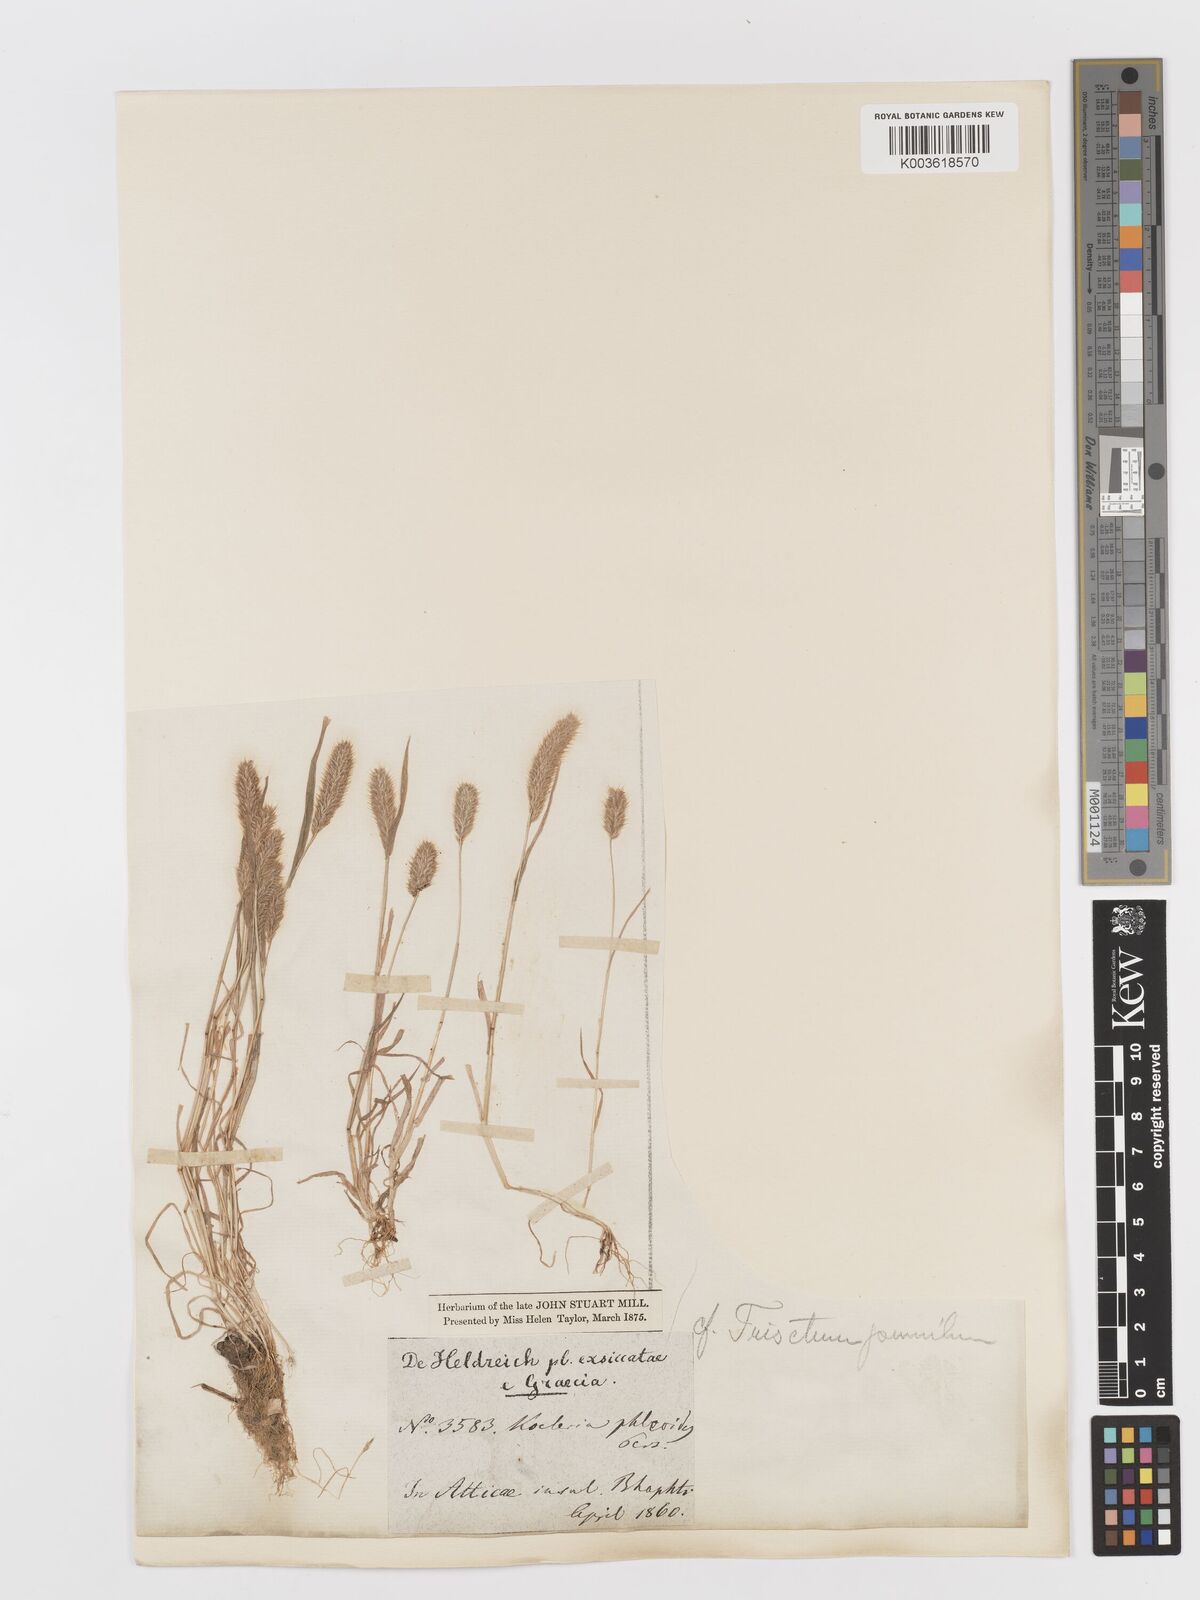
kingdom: Plantae
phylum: Tracheophyta
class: Liliopsida
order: Poales
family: Poaceae
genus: Rostraria
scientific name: Rostraria cristata
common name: Mediterranean hair-grass
